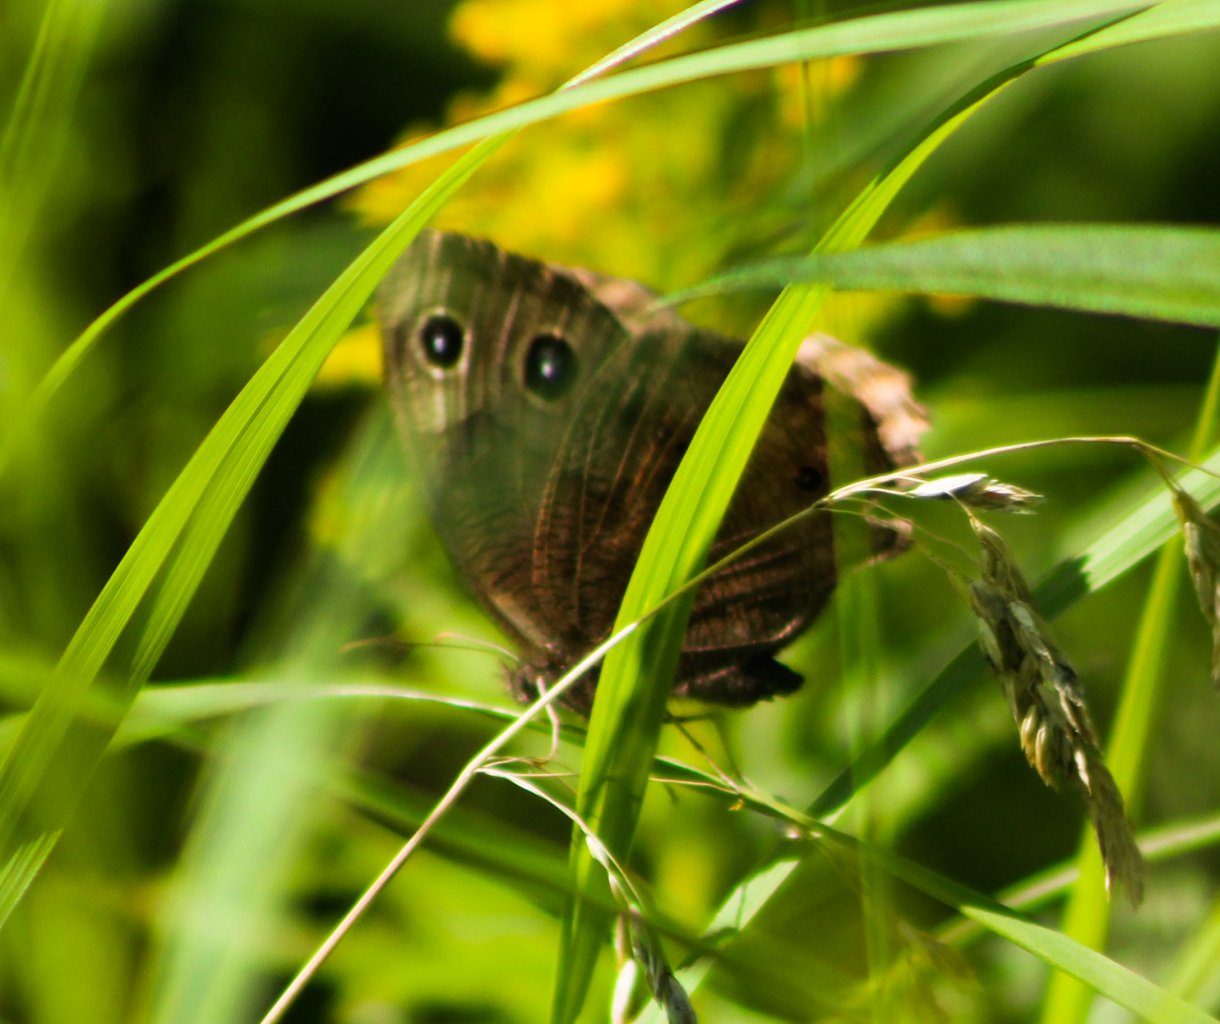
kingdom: Animalia
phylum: Arthropoda
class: Insecta
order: Lepidoptera
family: Nymphalidae
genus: Cercyonis
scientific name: Cercyonis pegala
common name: Common Wood-Nymph
